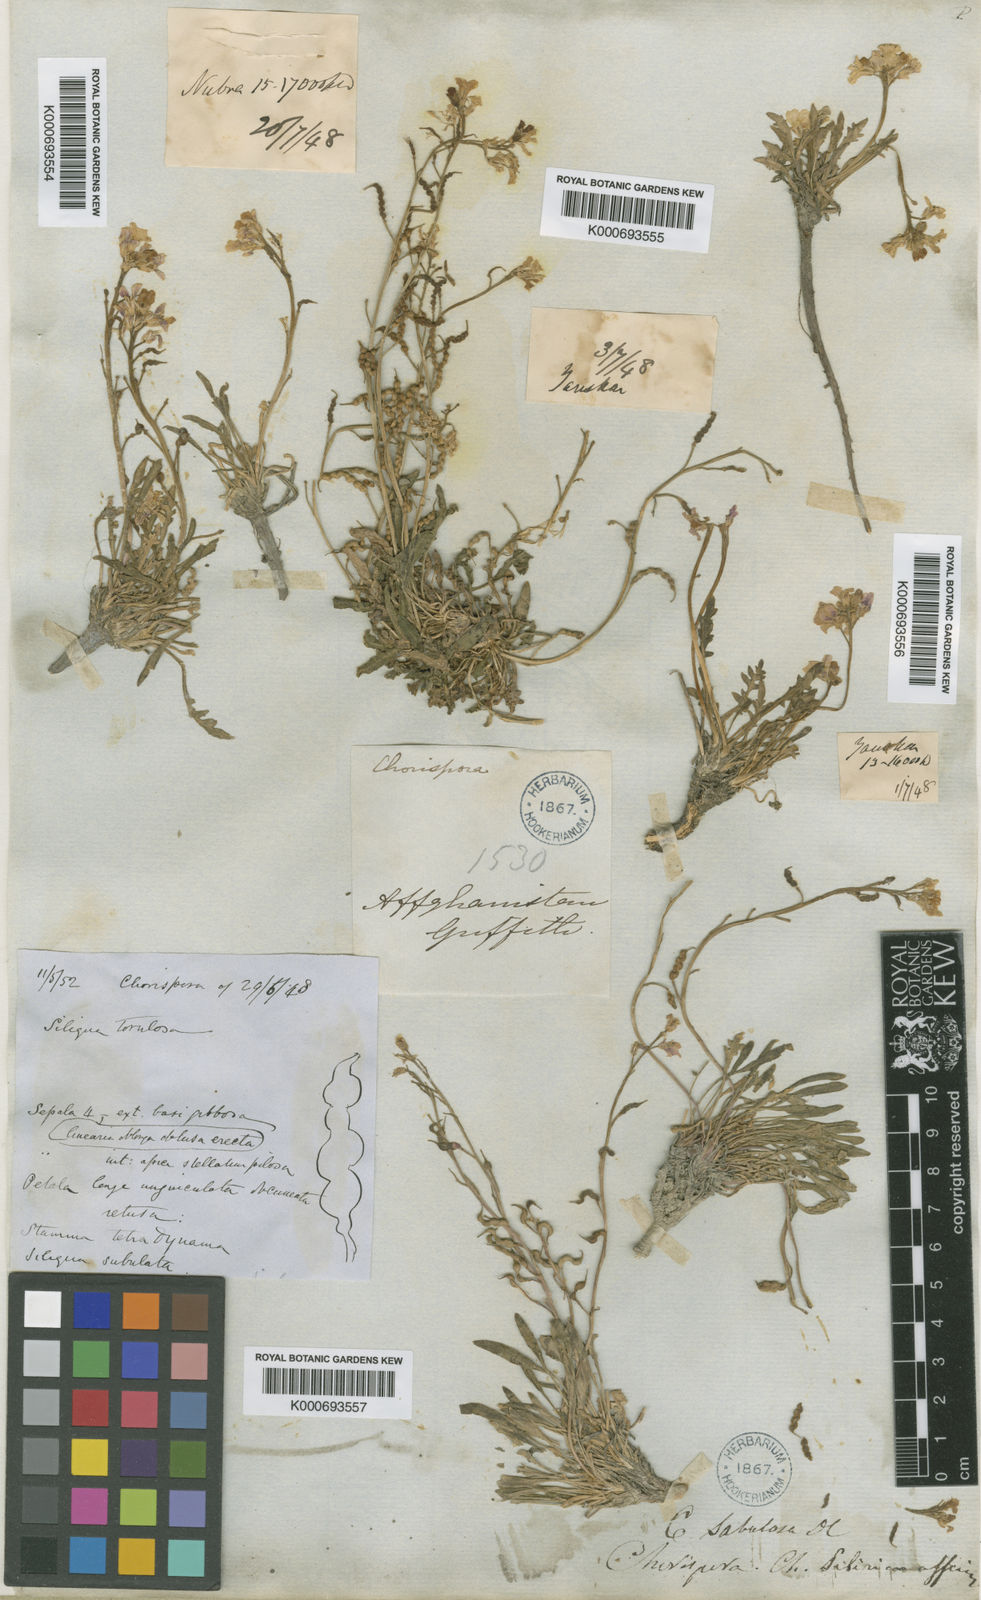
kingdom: Plantae
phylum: Tracheophyta
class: Magnoliopsida
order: Brassicales
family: Brassicaceae
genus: Chorispora
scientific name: Chorispora
